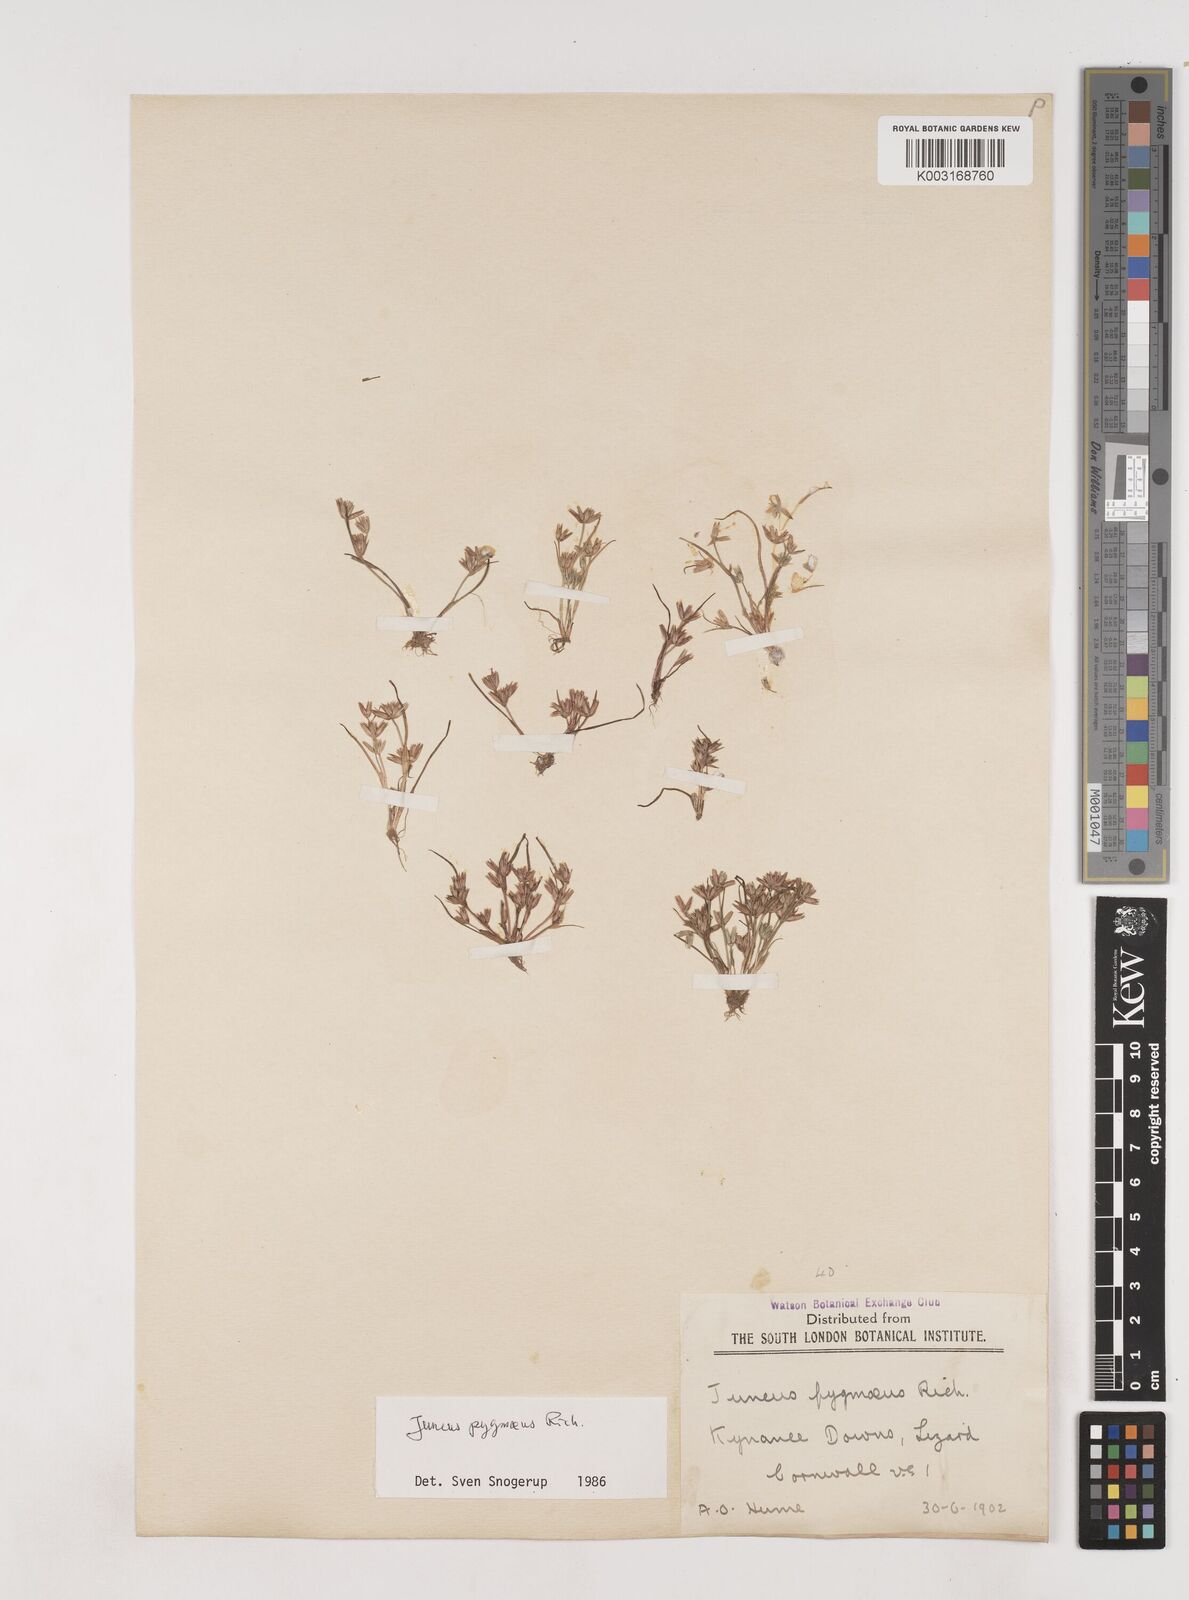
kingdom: Plantae
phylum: Tracheophyta
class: Liliopsida
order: Poales
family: Juncaceae
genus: Juncus
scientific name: Juncus pygmaeus
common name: Pigmy rush
